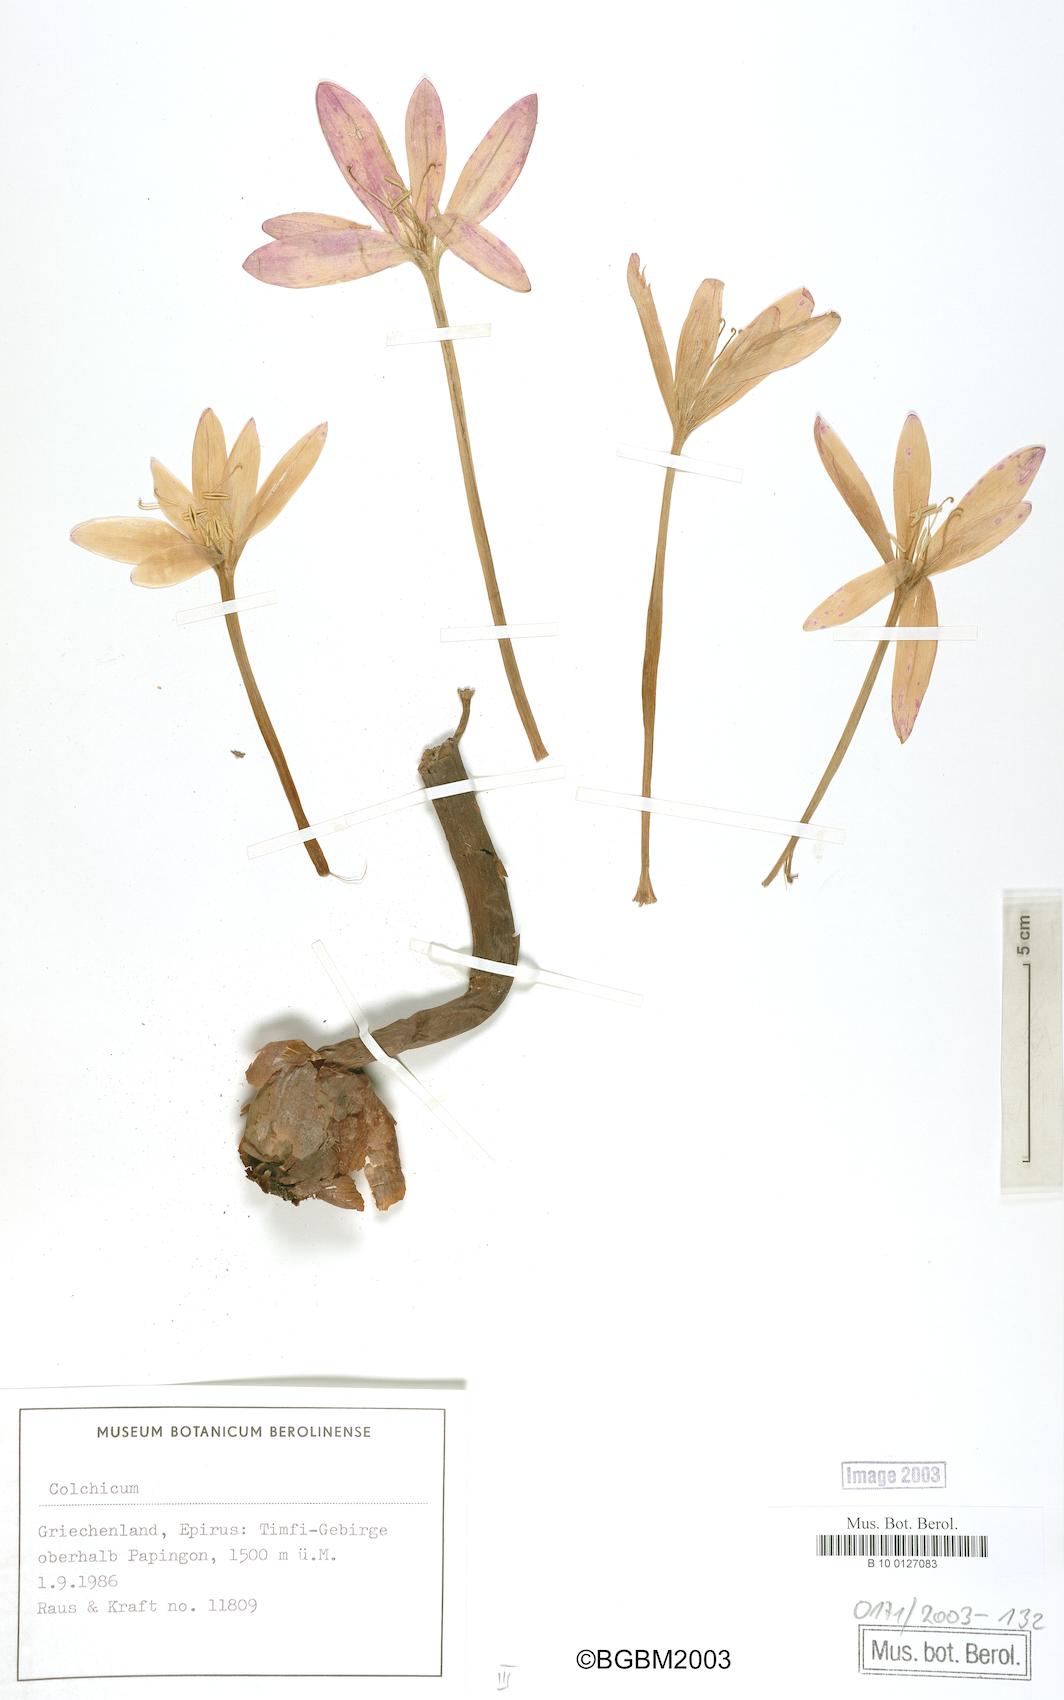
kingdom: Plantae
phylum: Tracheophyta
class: Liliopsida
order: Liliales
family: Colchicaceae
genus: Colchicum
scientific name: Colchicum
